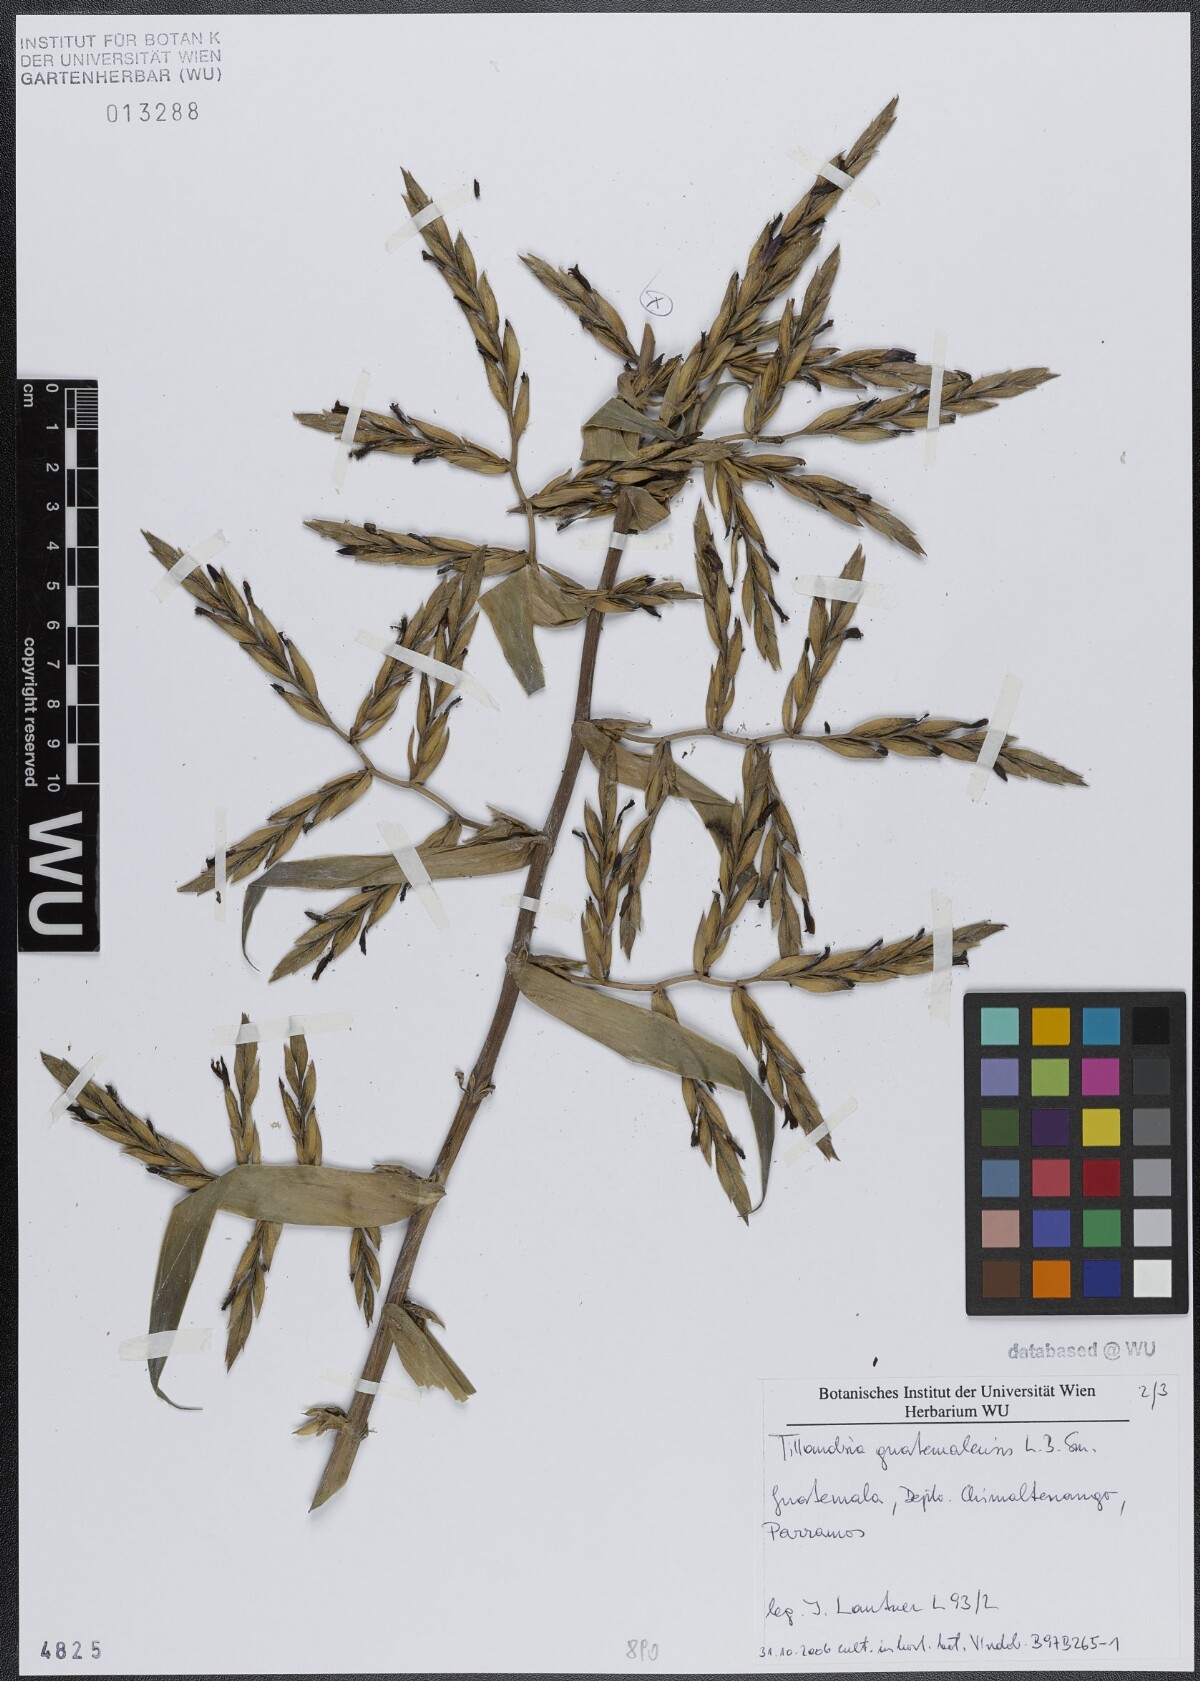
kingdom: Plantae
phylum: Tracheophyta
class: Liliopsida
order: Poales
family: Bromeliaceae
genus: Tillandsia
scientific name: Tillandsia guatemalensis
